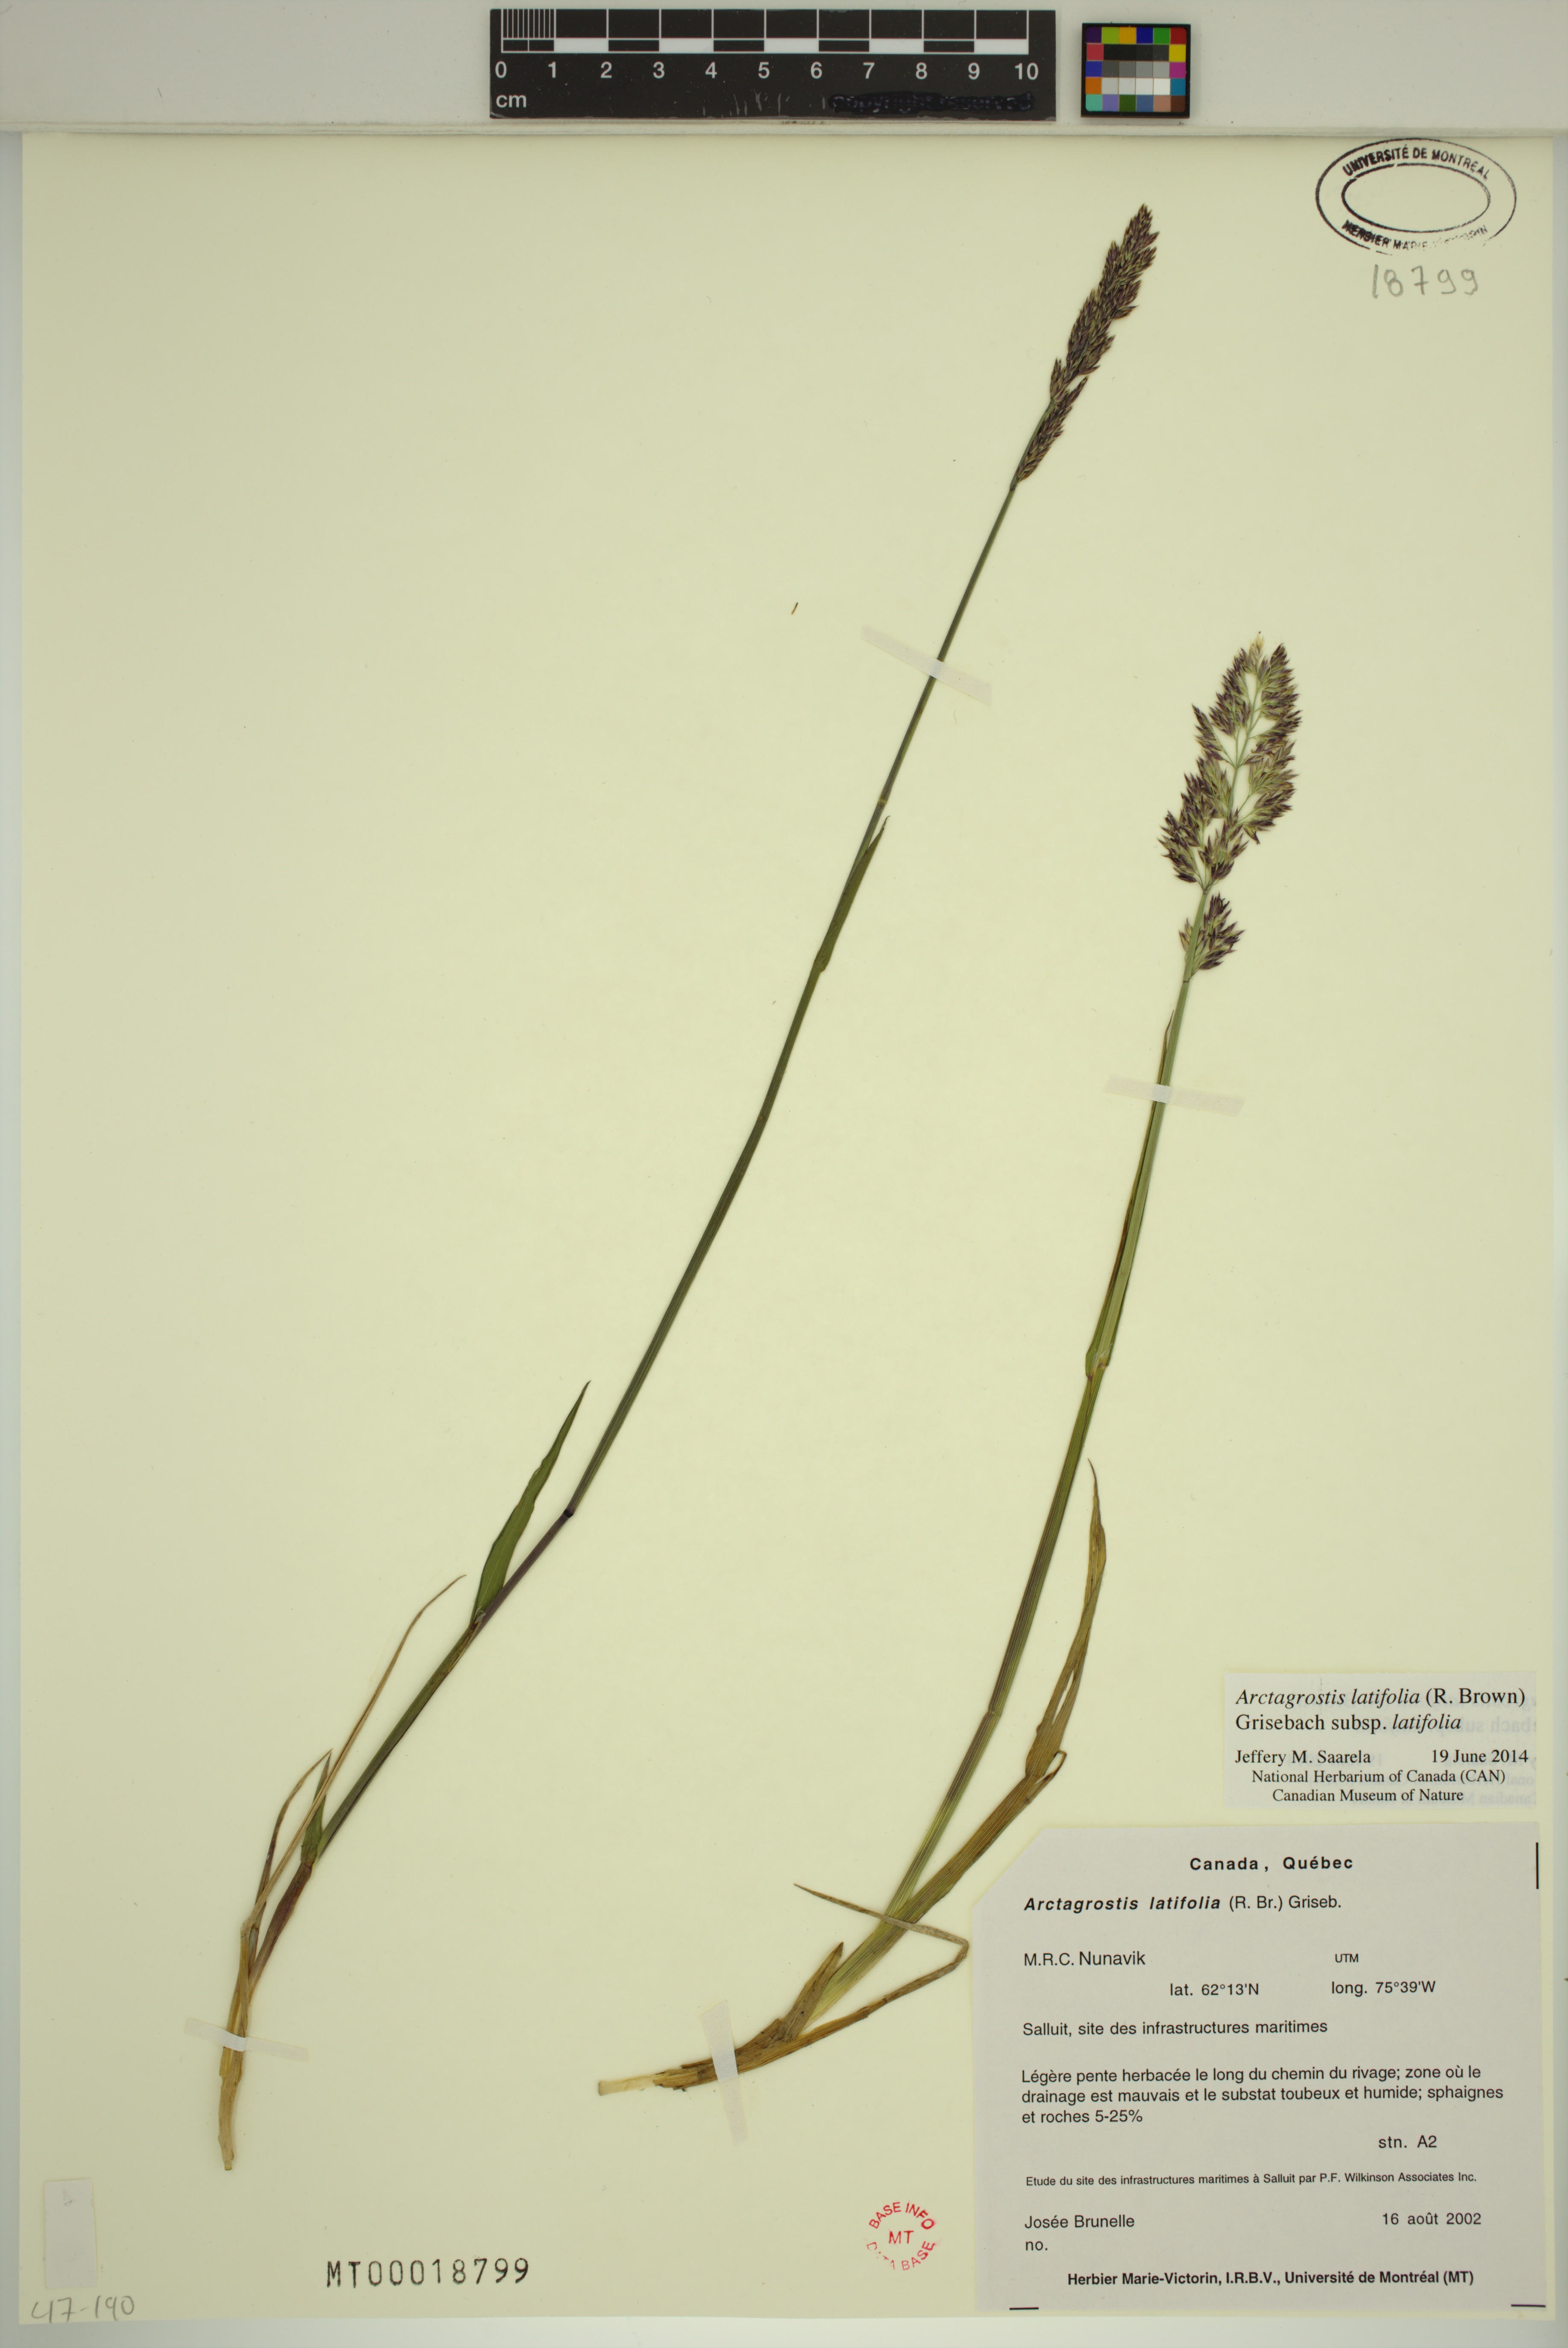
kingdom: Plantae
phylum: Tracheophyta
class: Liliopsida
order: Poales
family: Poaceae
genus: Arctagrostis
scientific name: Arctagrostis latifolia
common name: Arctic grass
